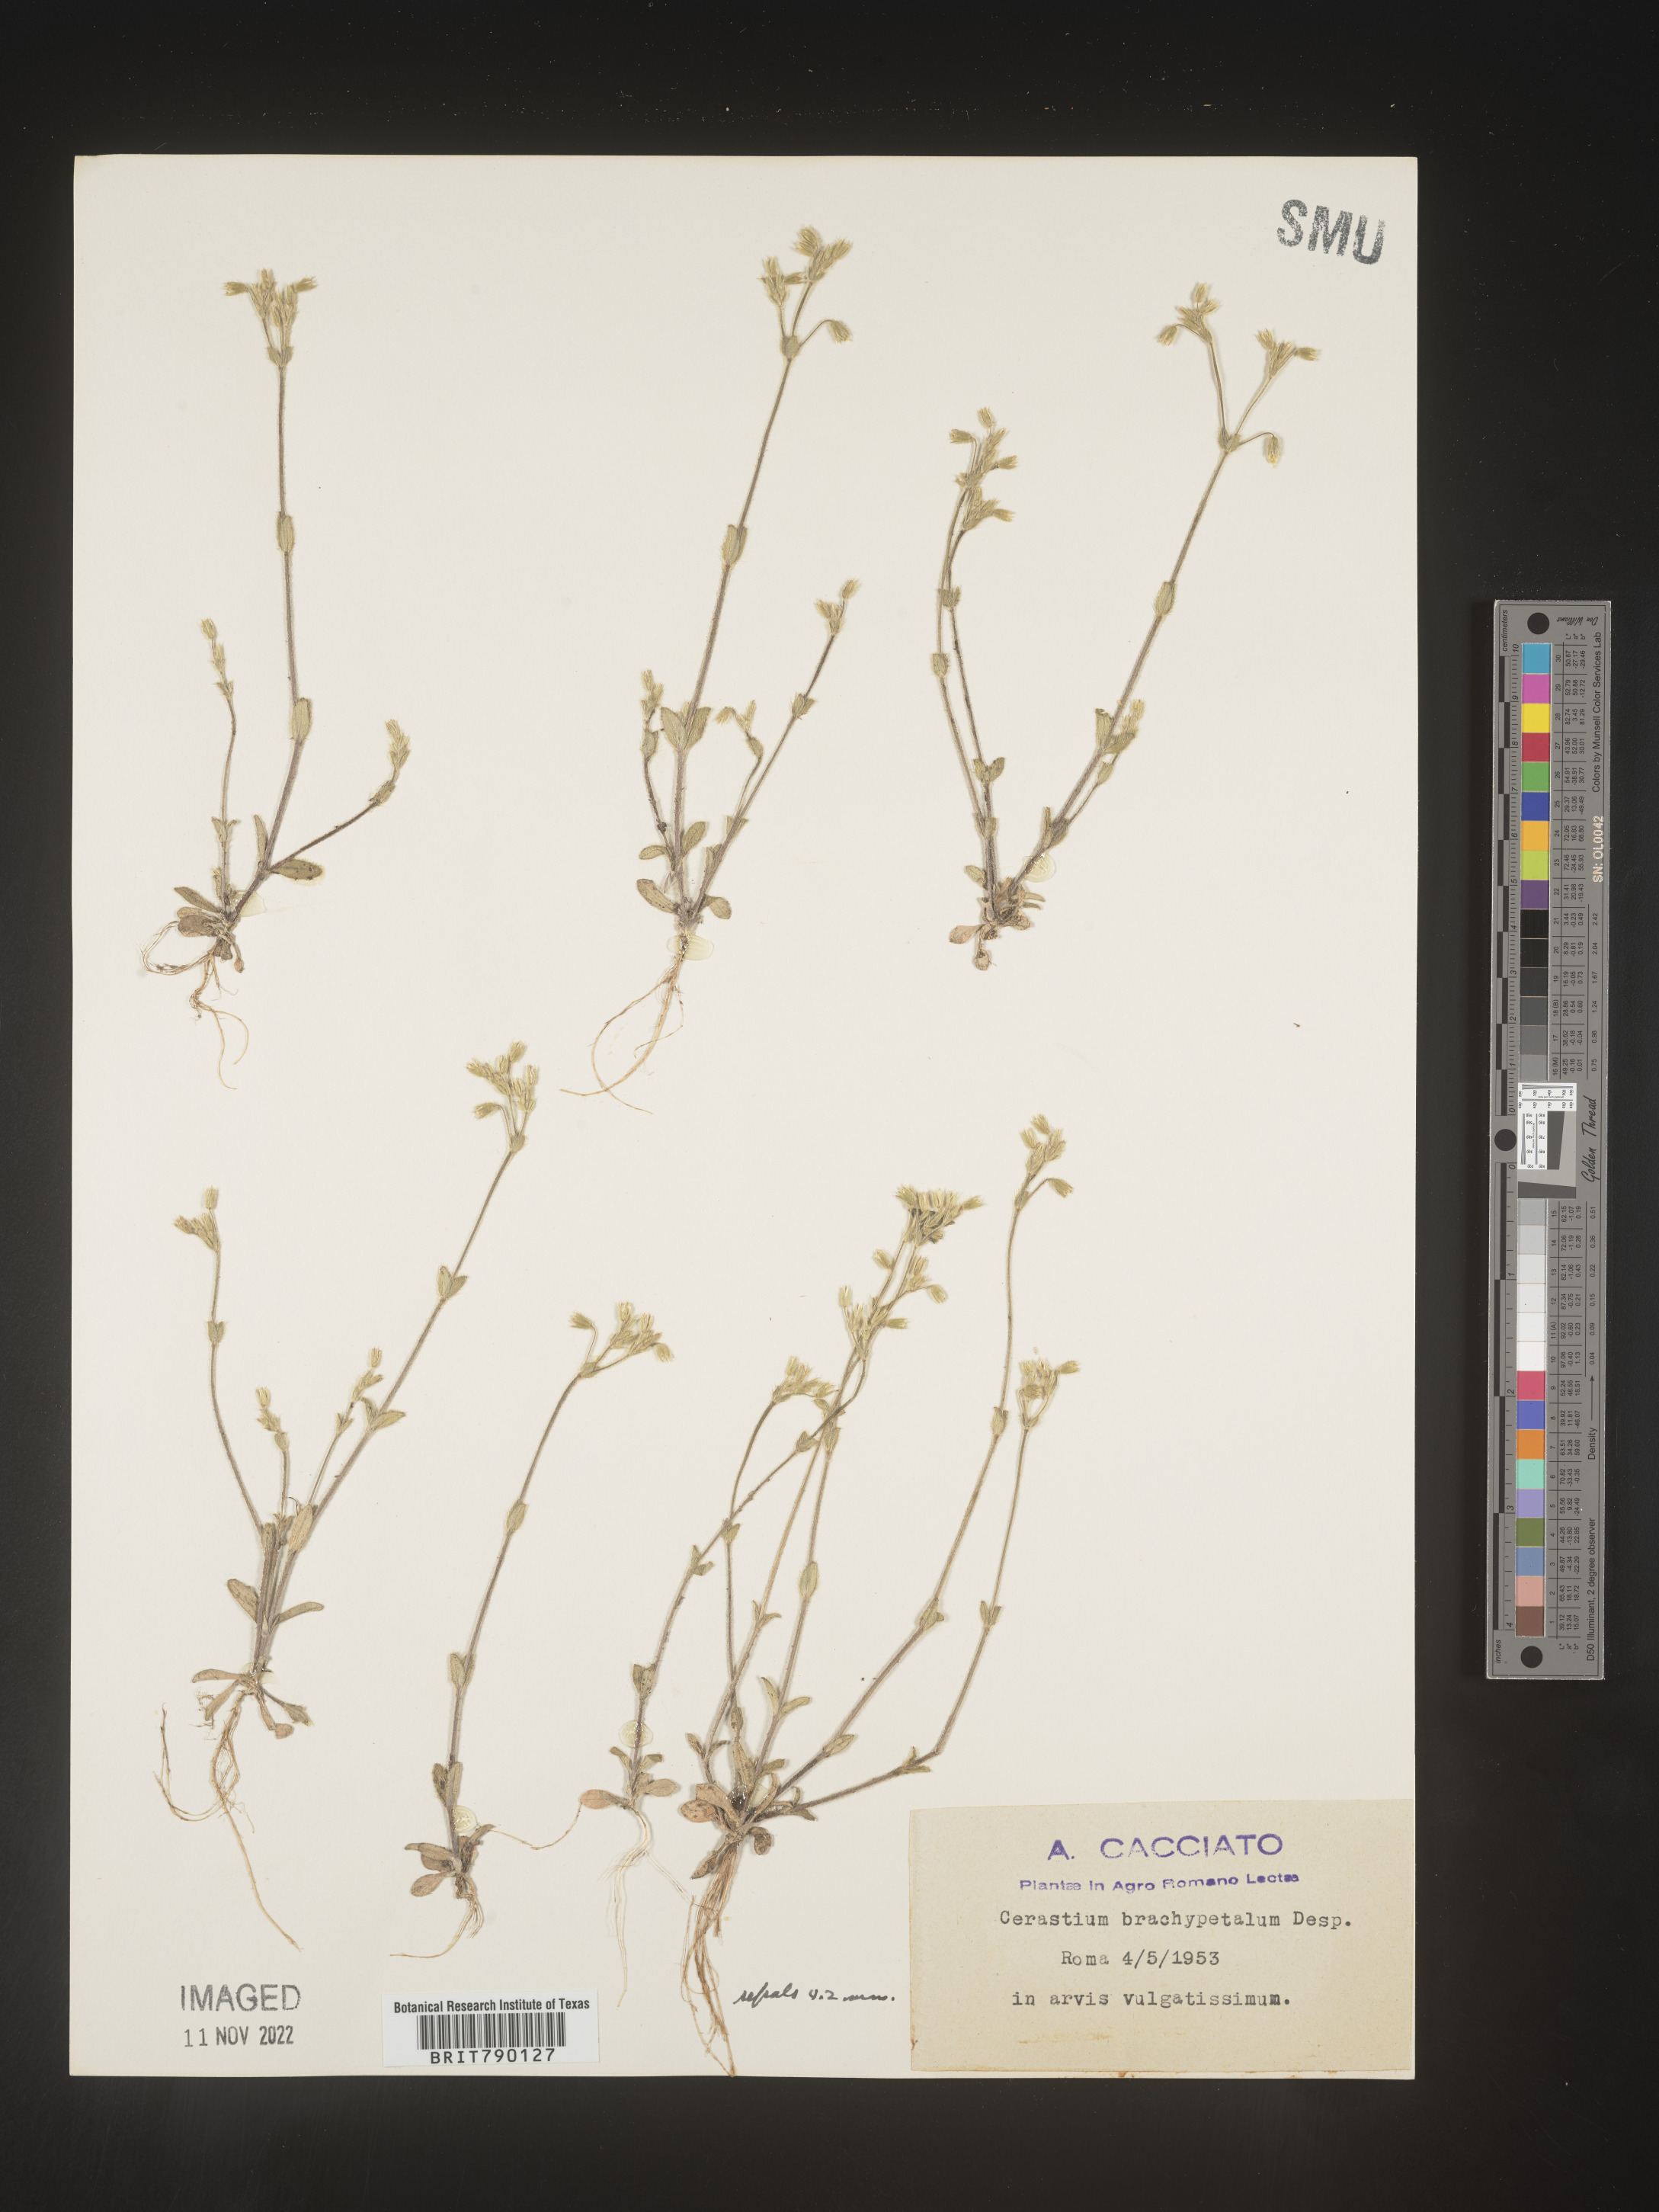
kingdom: Plantae
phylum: Tracheophyta
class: Magnoliopsida
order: Caryophyllales
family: Caryophyllaceae
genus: Cerastium
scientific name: Cerastium
